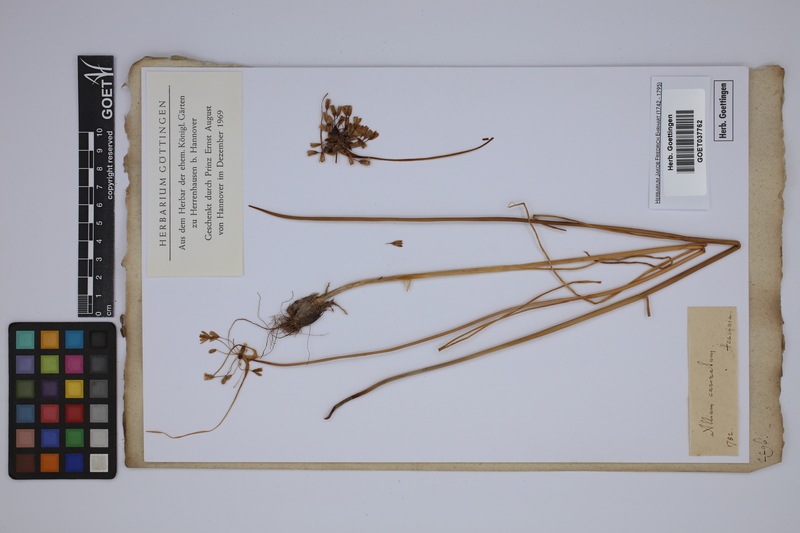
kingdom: Plantae
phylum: Tracheophyta
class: Liliopsida
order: Asparagales
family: Amaryllidaceae
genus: Allium
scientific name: Allium carinatum
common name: Keeled garlic
